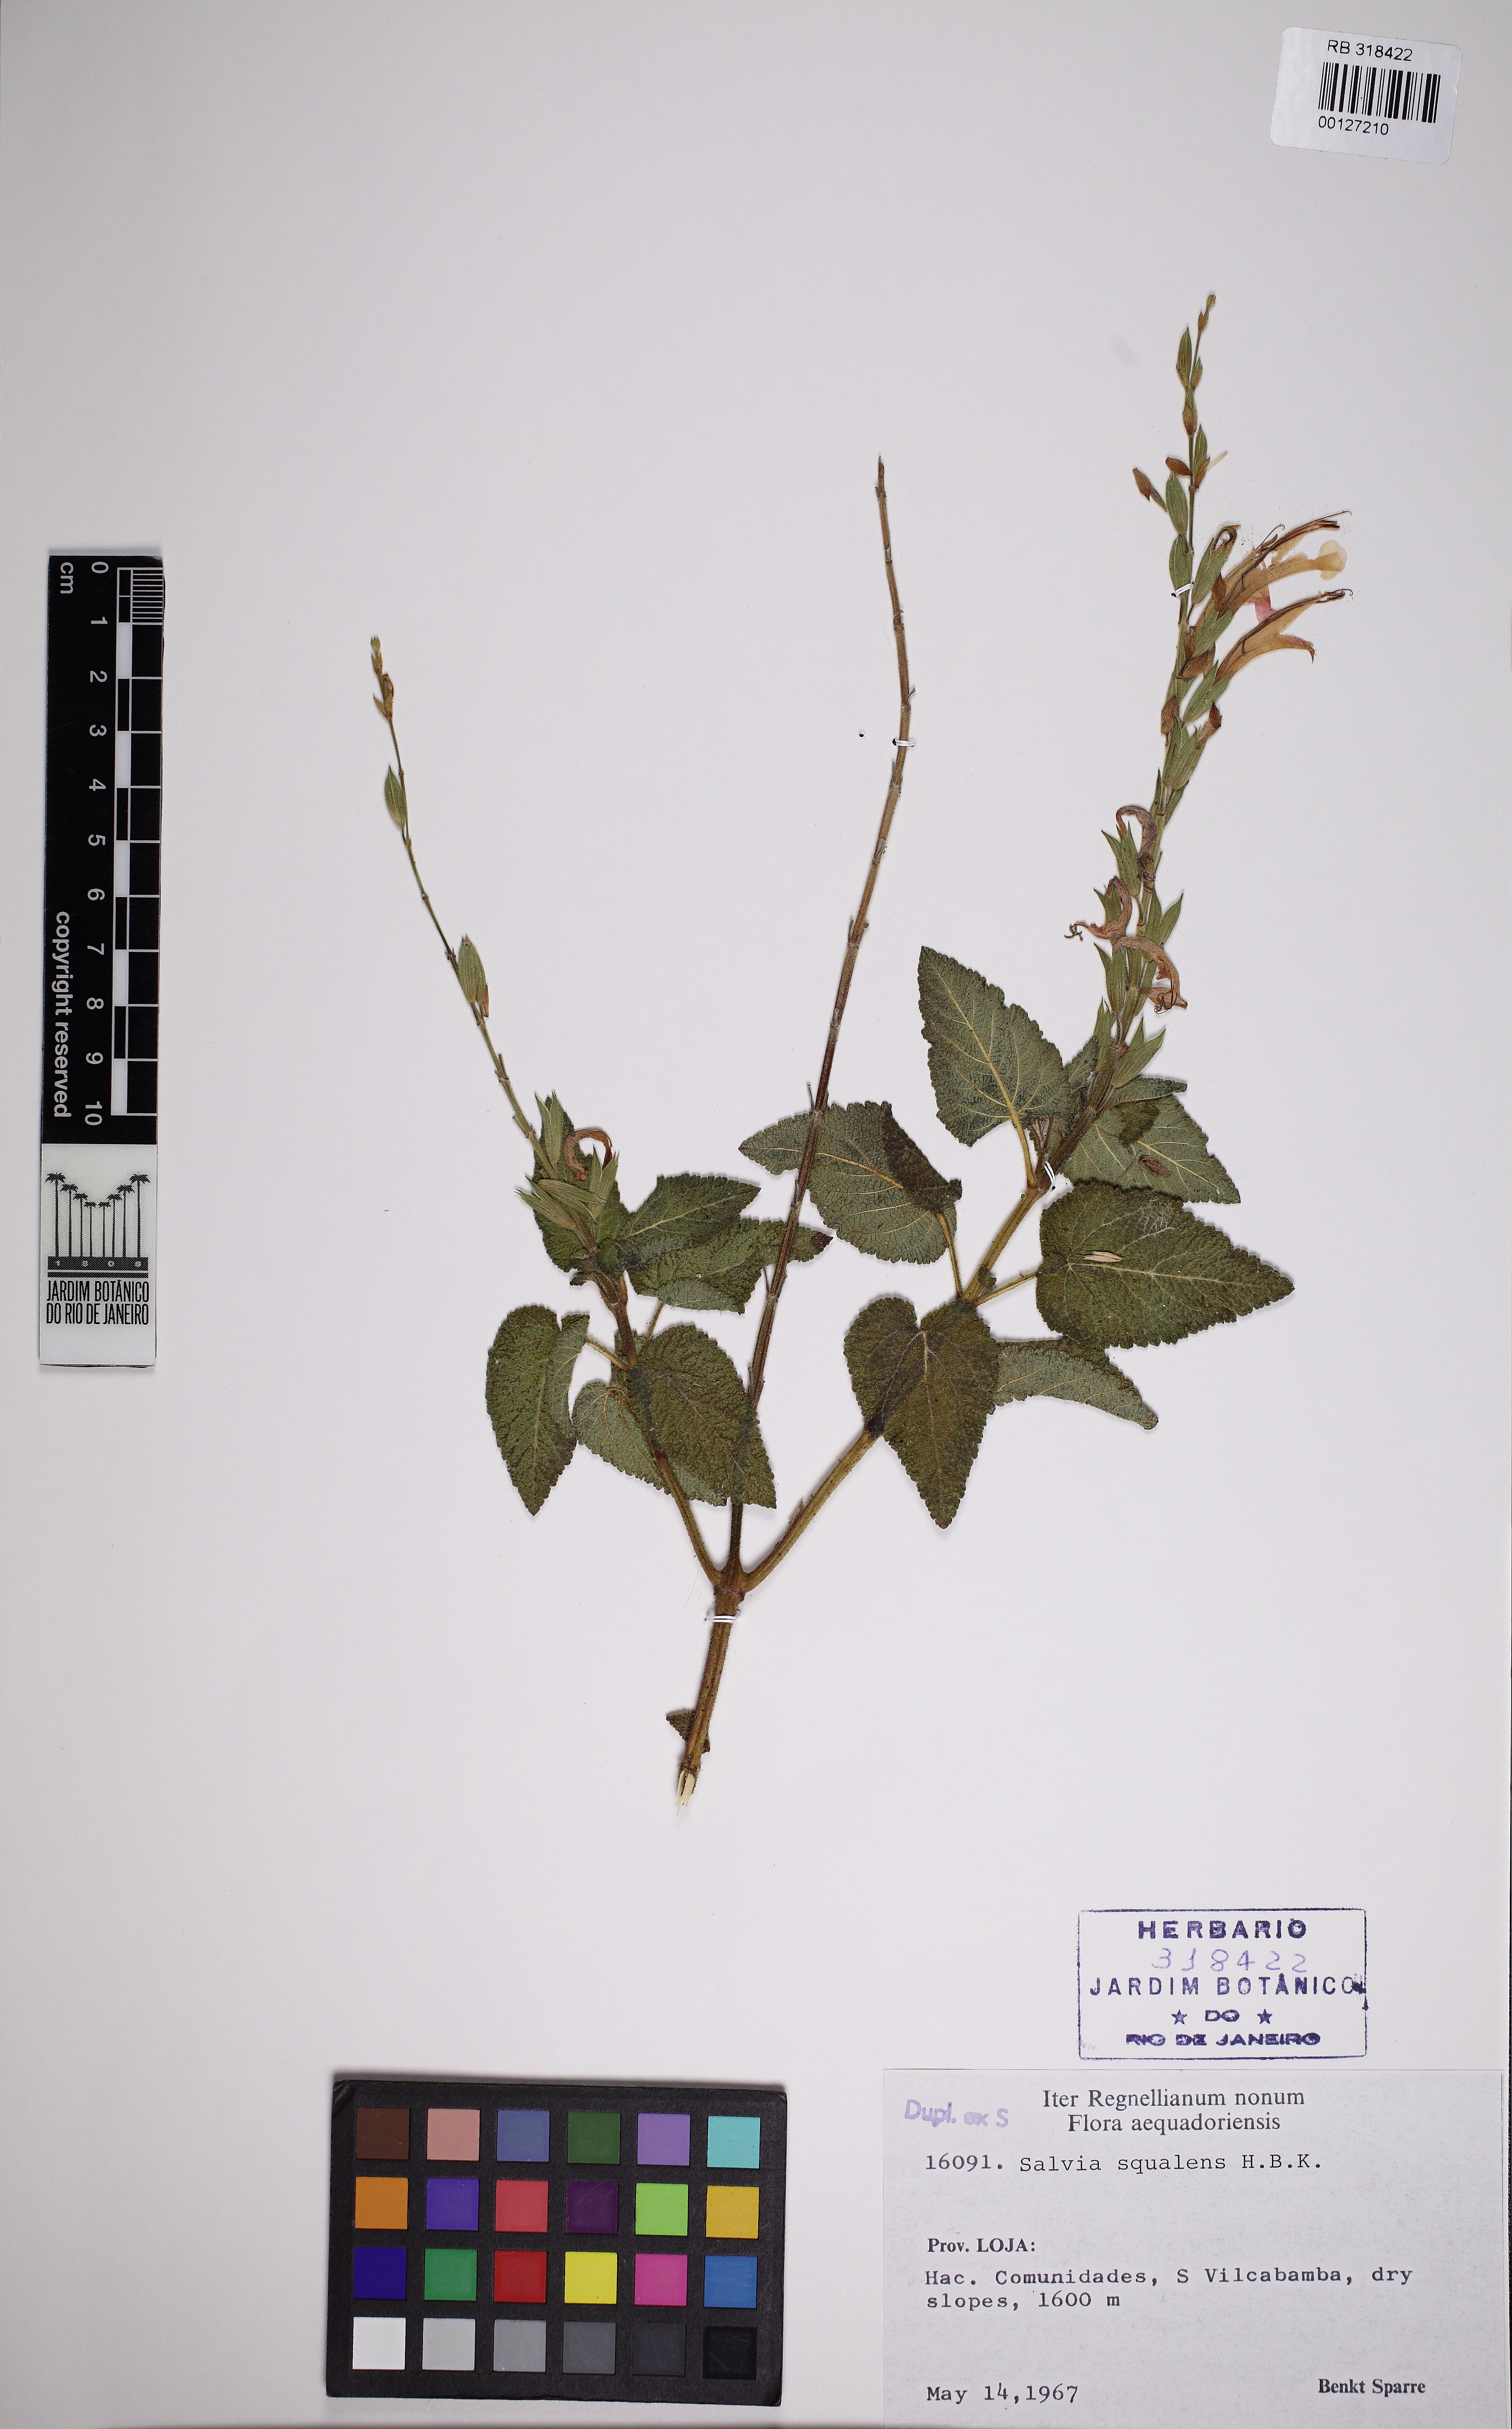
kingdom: Plantae
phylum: Tracheophyta
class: Magnoliopsida
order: Lamiales
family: Lamiaceae
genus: Salvia
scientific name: Salvia squalens
